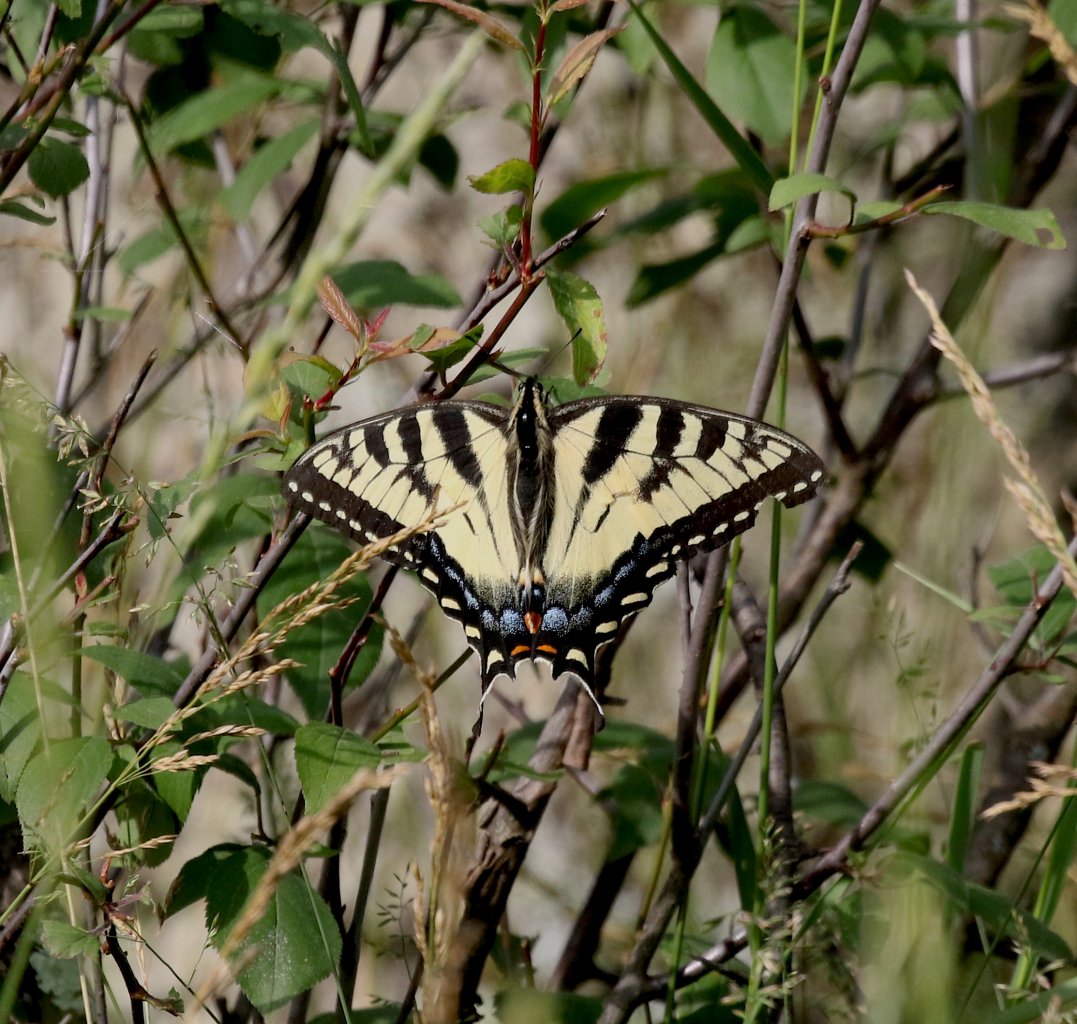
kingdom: Animalia
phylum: Arthropoda
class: Insecta
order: Lepidoptera
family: Papilionidae
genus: Pterourus
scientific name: Pterourus canadensis
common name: Canadian Tiger Swallowtail
